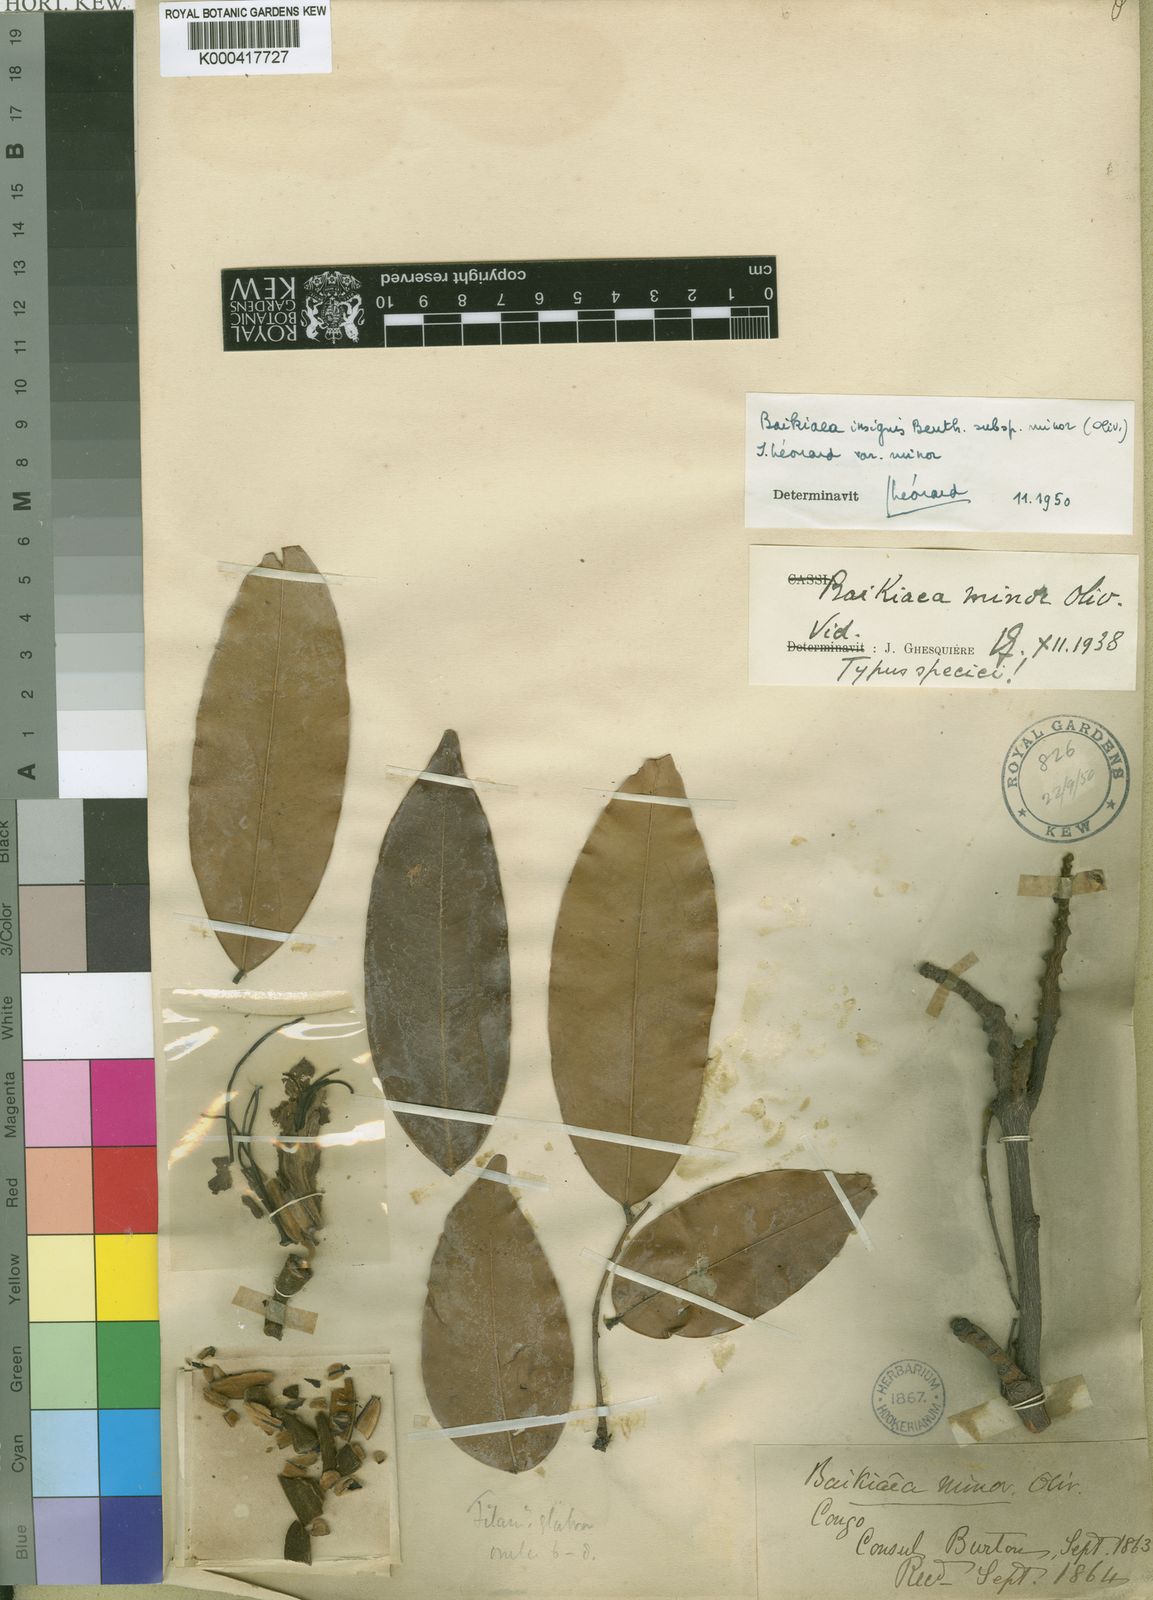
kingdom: Plantae
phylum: Tracheophyta
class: Magnoliopsida
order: Fabales
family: Fabaceae
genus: Baikiaea
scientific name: Baikiaea insignis
